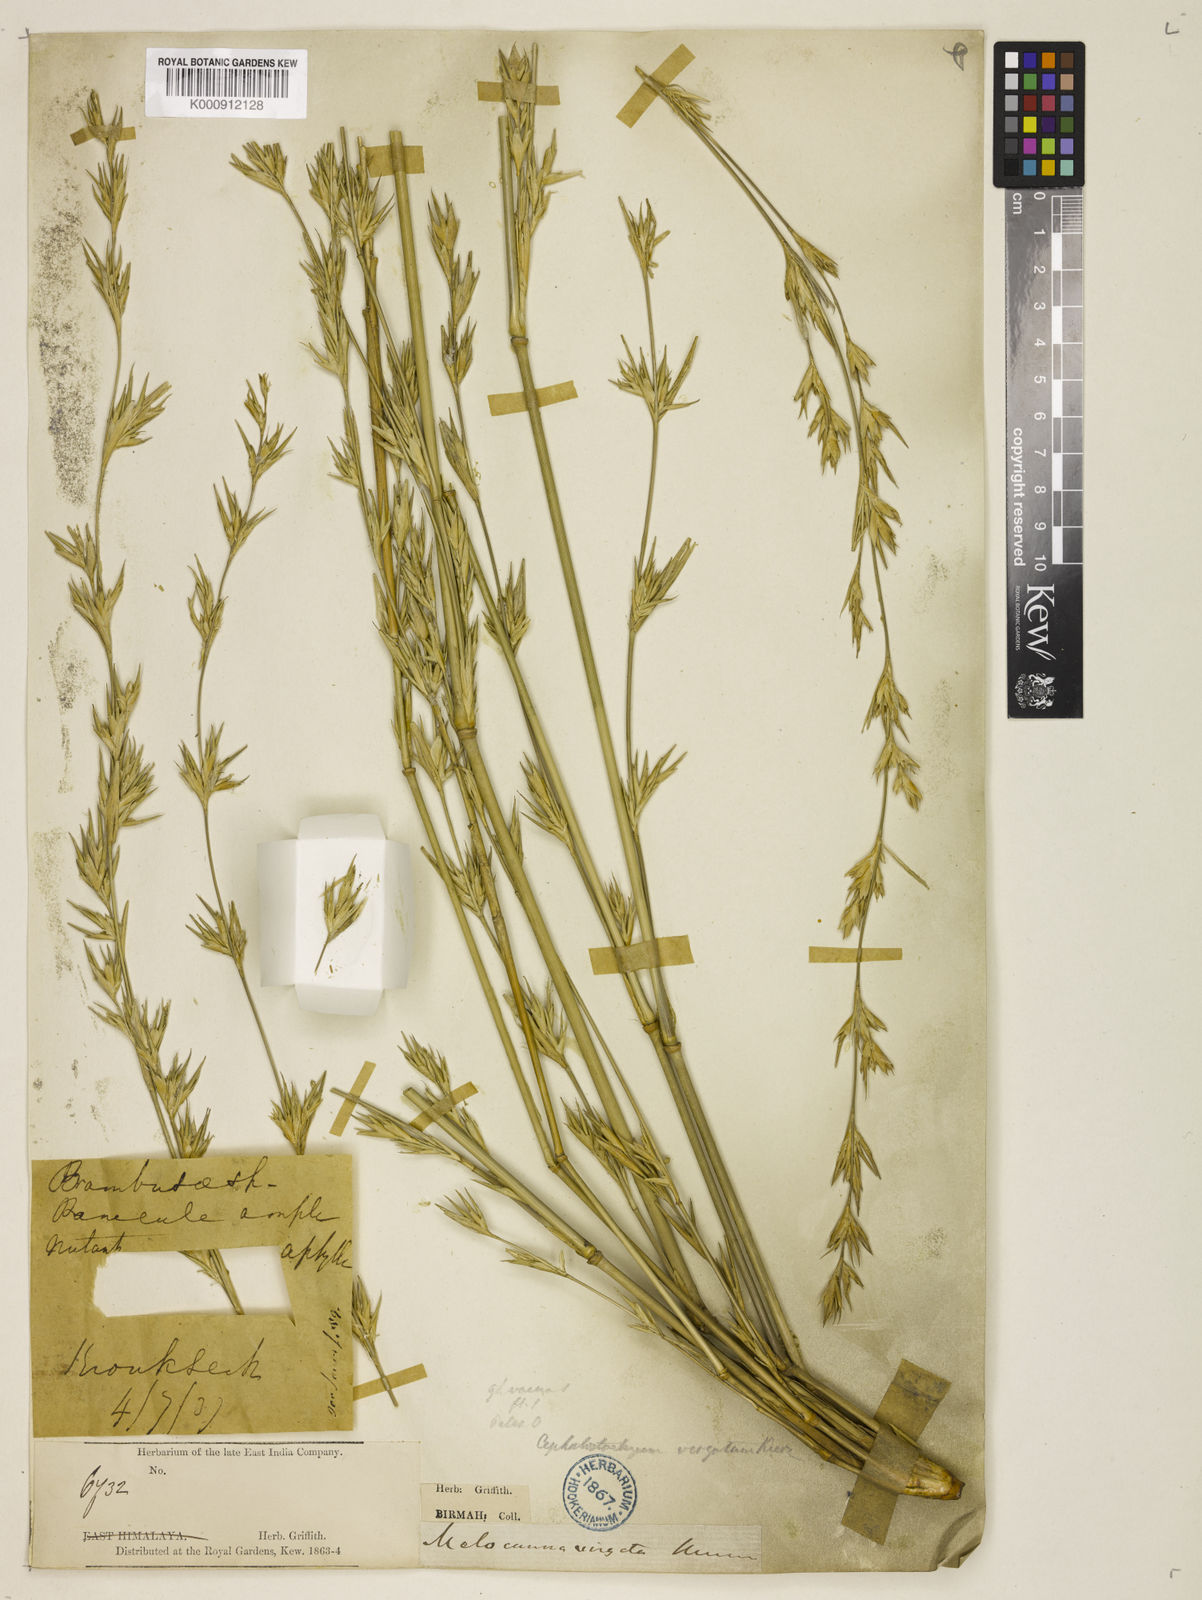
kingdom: Plantae
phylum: Tracheophyta
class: Liliopsida
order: Poales
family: Poaceae
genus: Schizostachyum
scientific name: Schizostachyum virgatum
